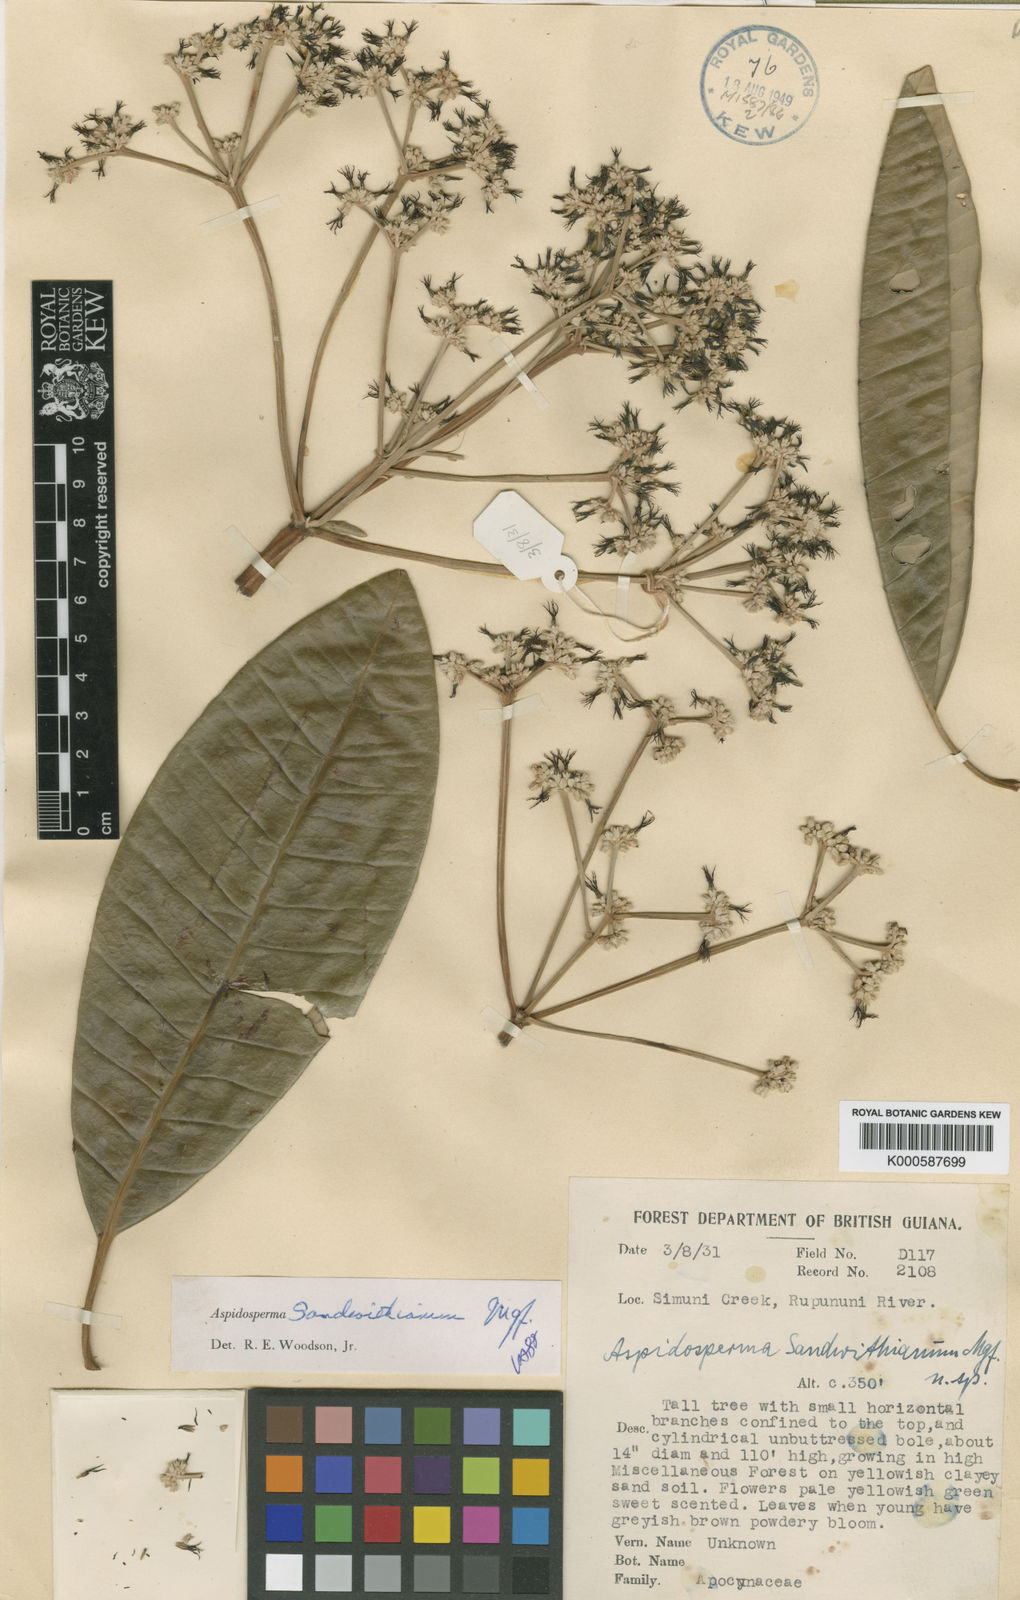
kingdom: Plantae
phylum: Tracheophyta
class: Magnoliopsida
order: Gentianales
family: Apocynaceae
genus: Aspidosperma
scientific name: Aspidosperma sandwithianum
